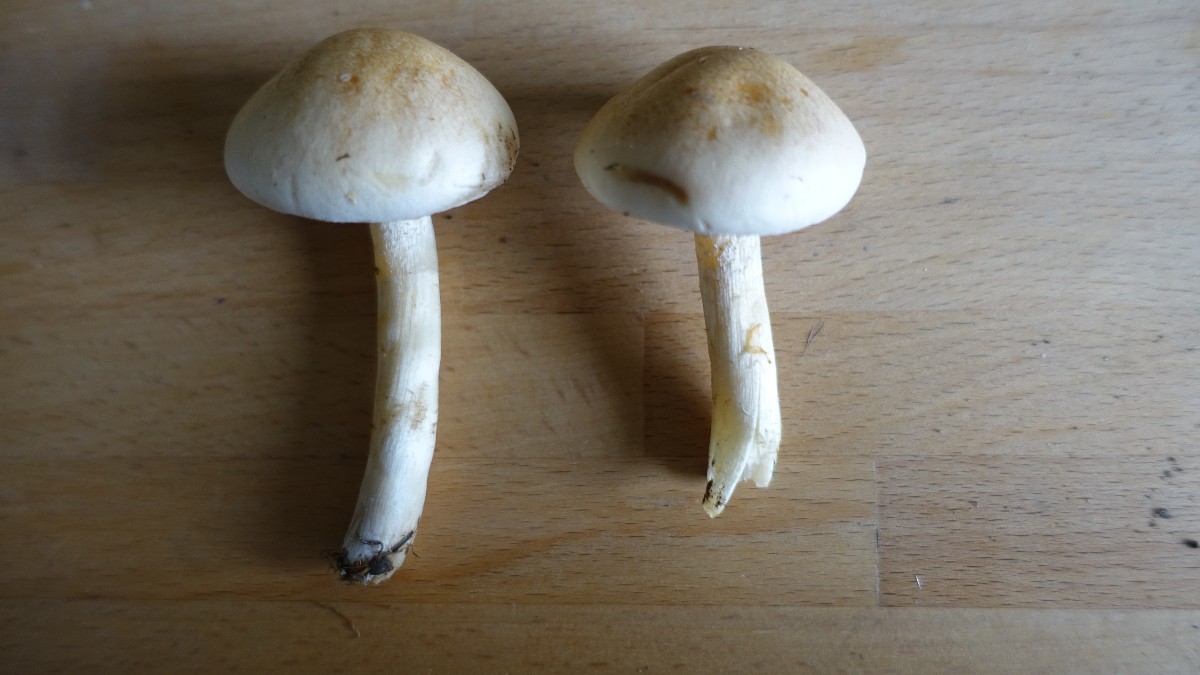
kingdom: Fungi
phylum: Basidiomycota
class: Agaricomycetes
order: Agaricales
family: Hymenogastraceae
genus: Hebeloma
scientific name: Hebeloma crustuliniforme
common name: almindelig tåreblad
